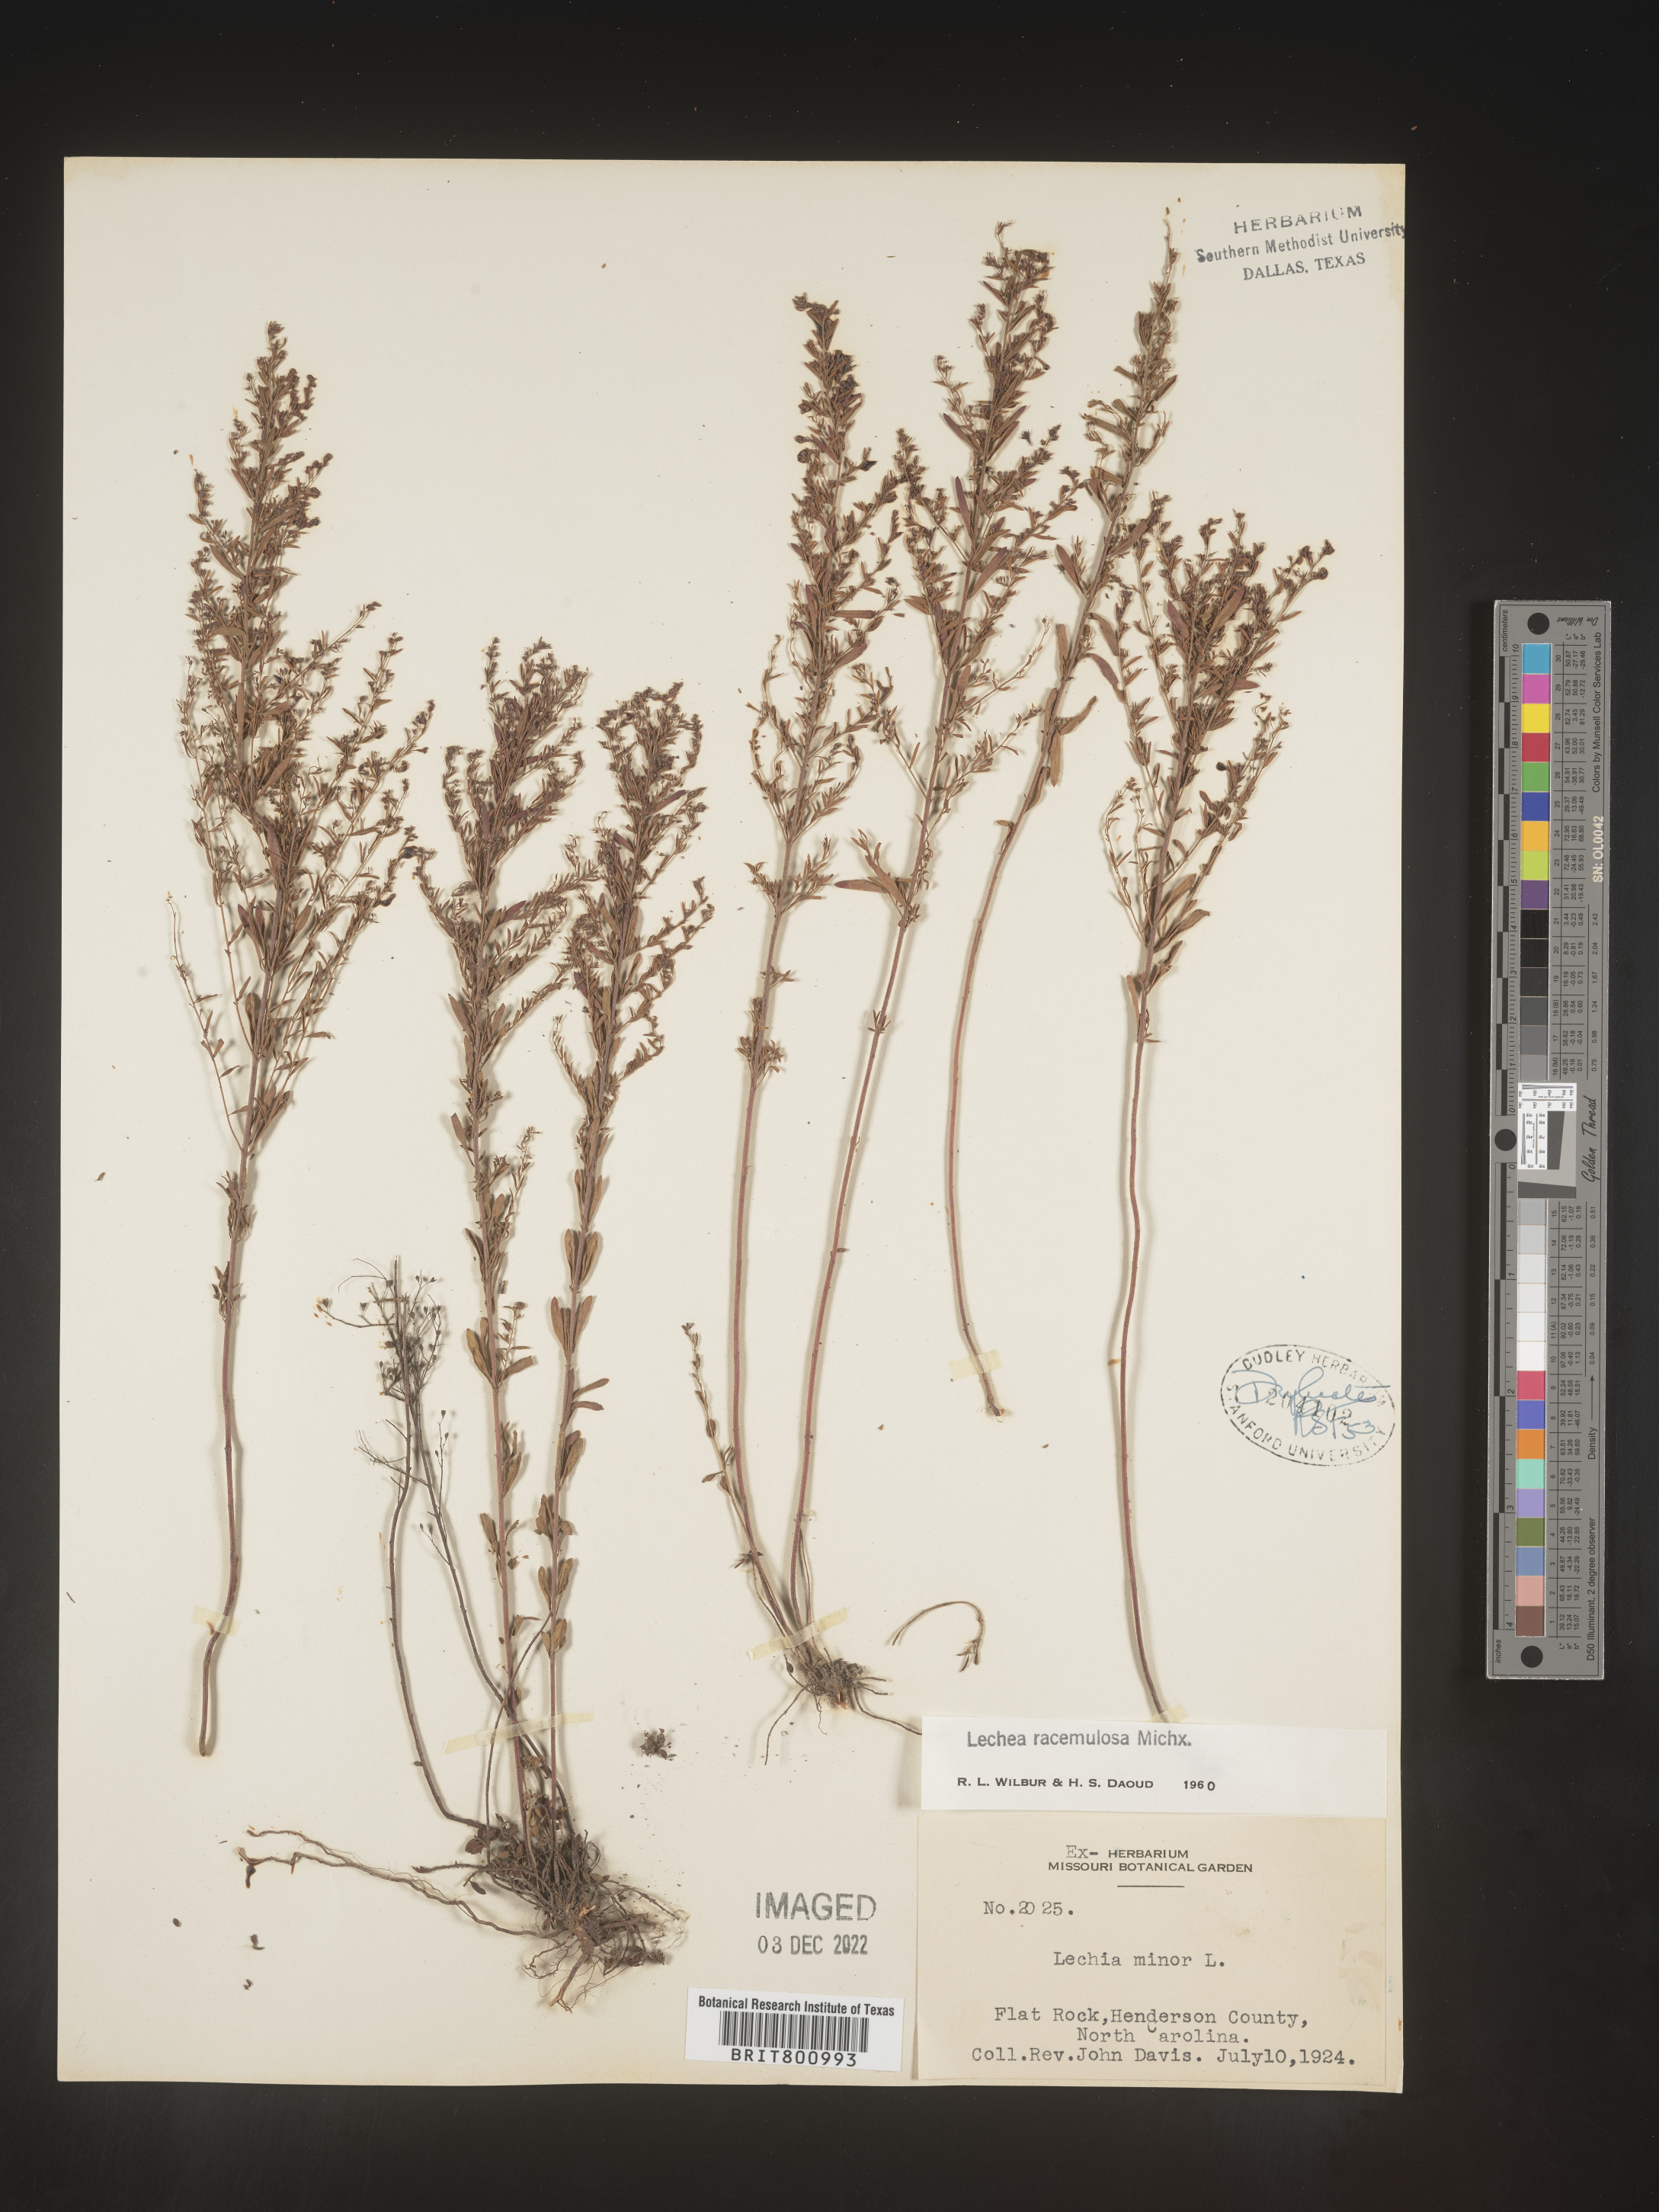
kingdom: Plantae
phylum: Tracheophyta
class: Magnoliopsida
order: Malvales
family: Cistaceae
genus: Lechea
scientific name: Lechea racemulosa
